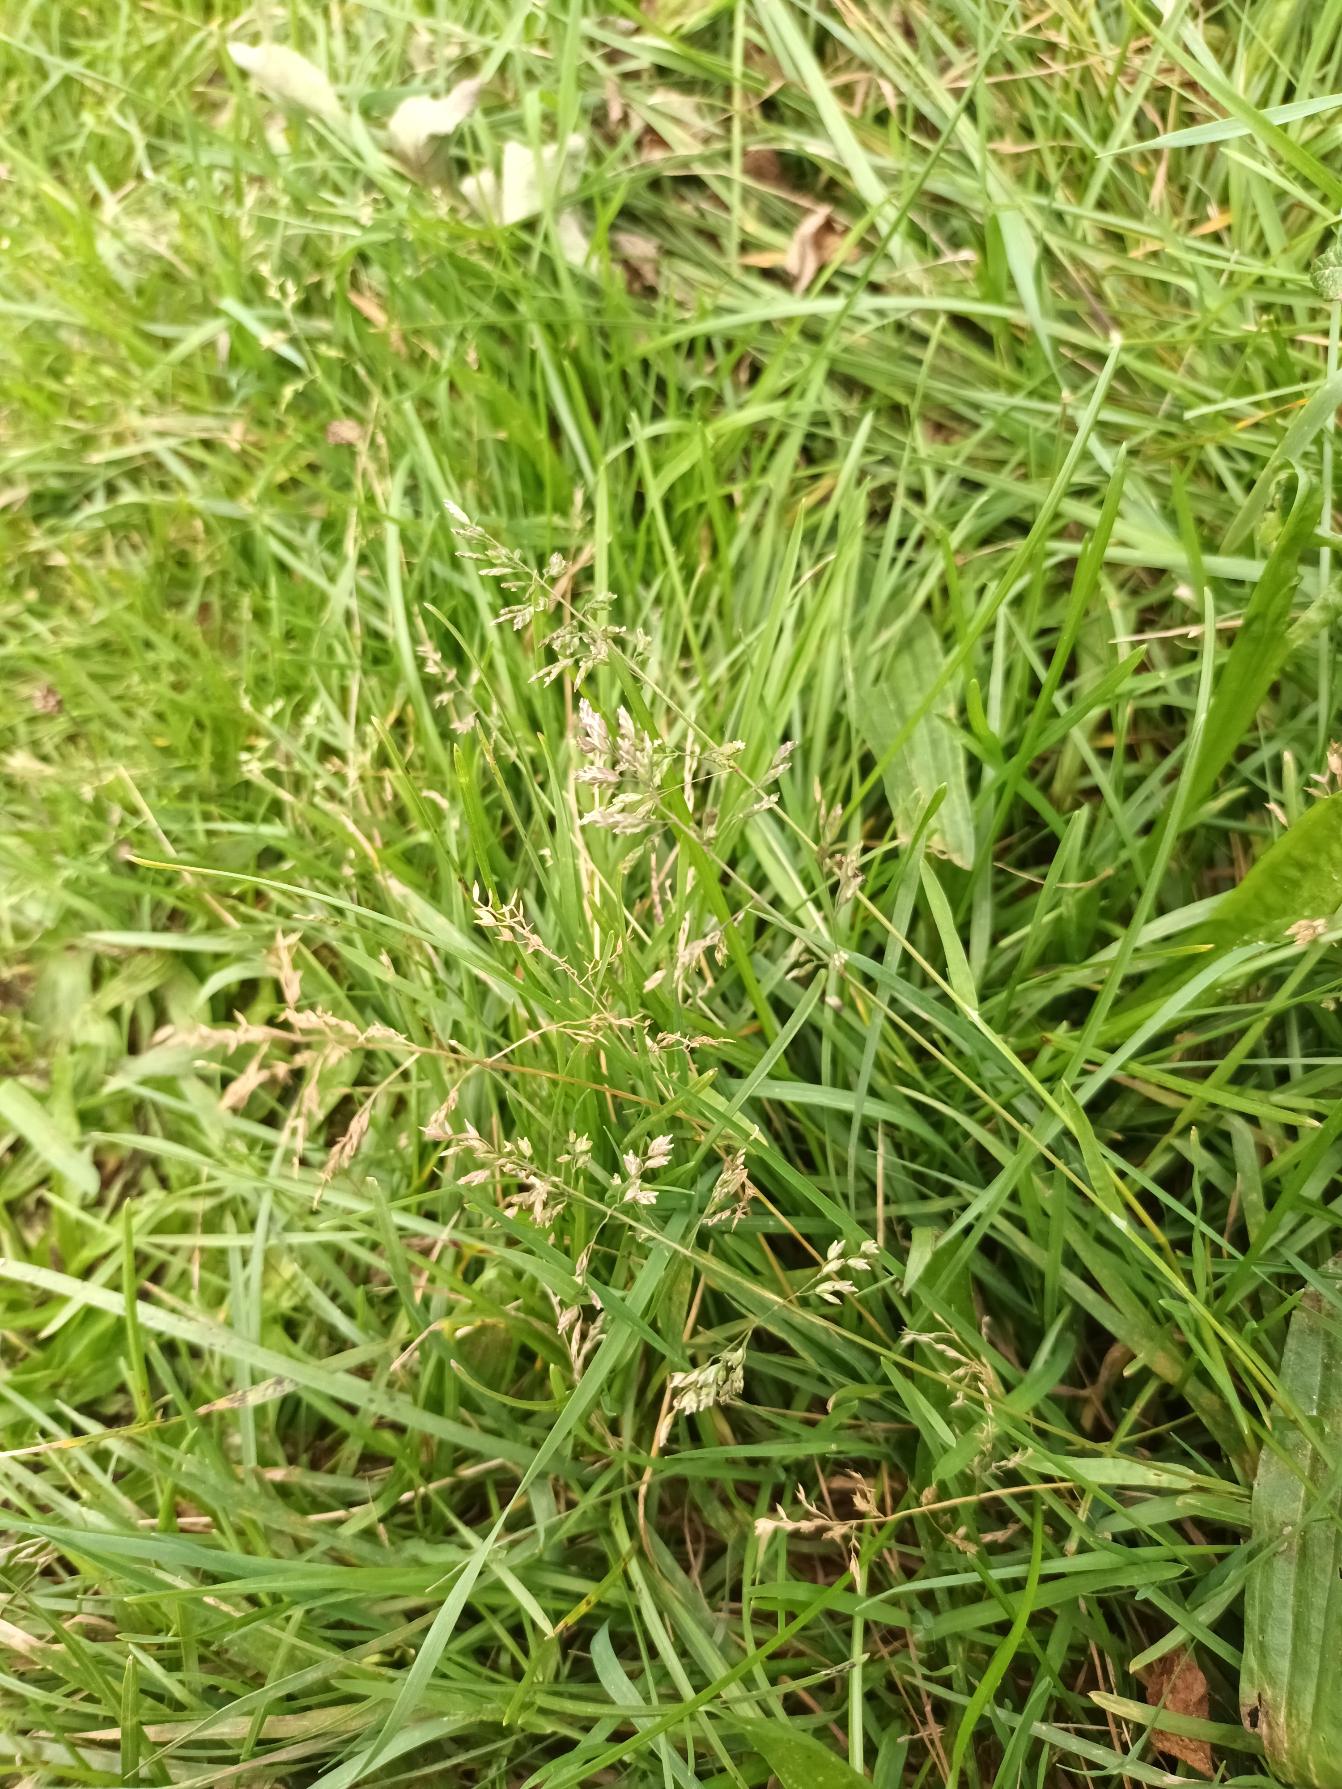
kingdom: Plantae
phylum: Tracheophyta
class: Liliopsida
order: Poales
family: Poaceae
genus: Poa
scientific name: Poa annua
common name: Enårig rapgræs
